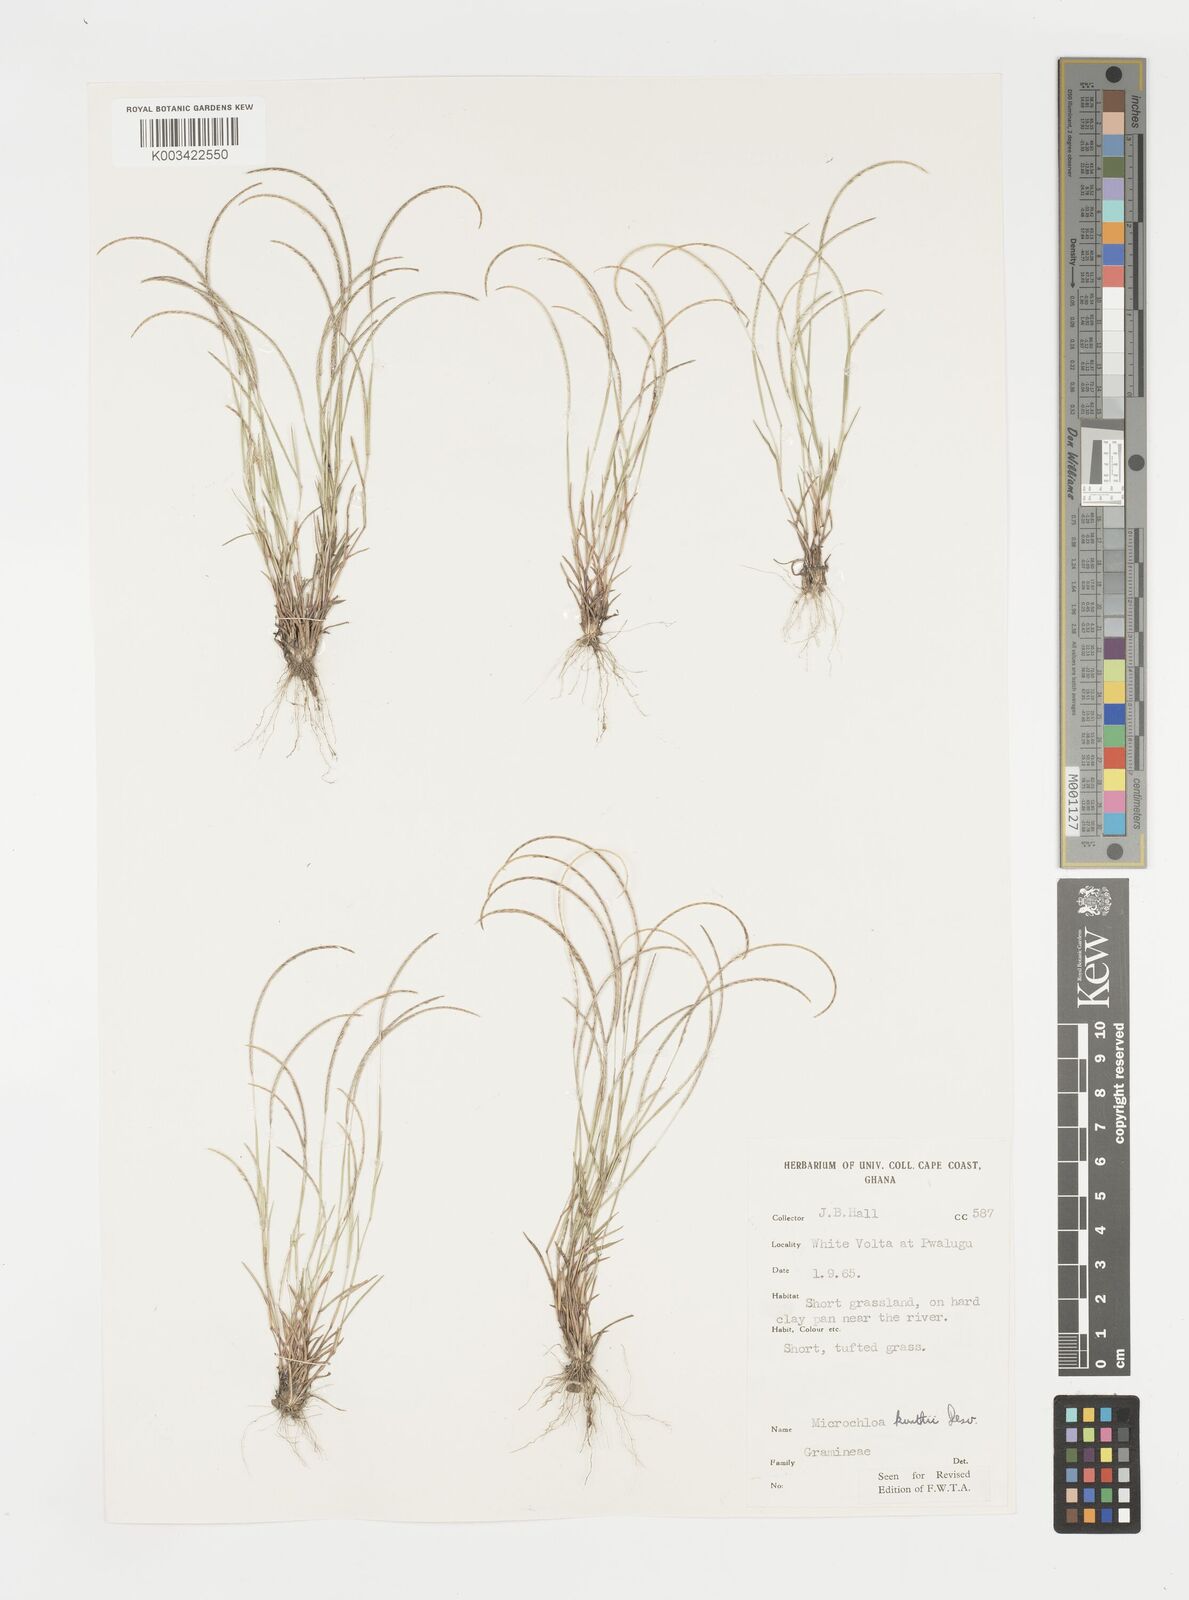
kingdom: Plantae
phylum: Tracheophyta
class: Liliopsida
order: Poales
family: Poaceae
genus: Microchloa
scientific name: Microchloa kunthii
